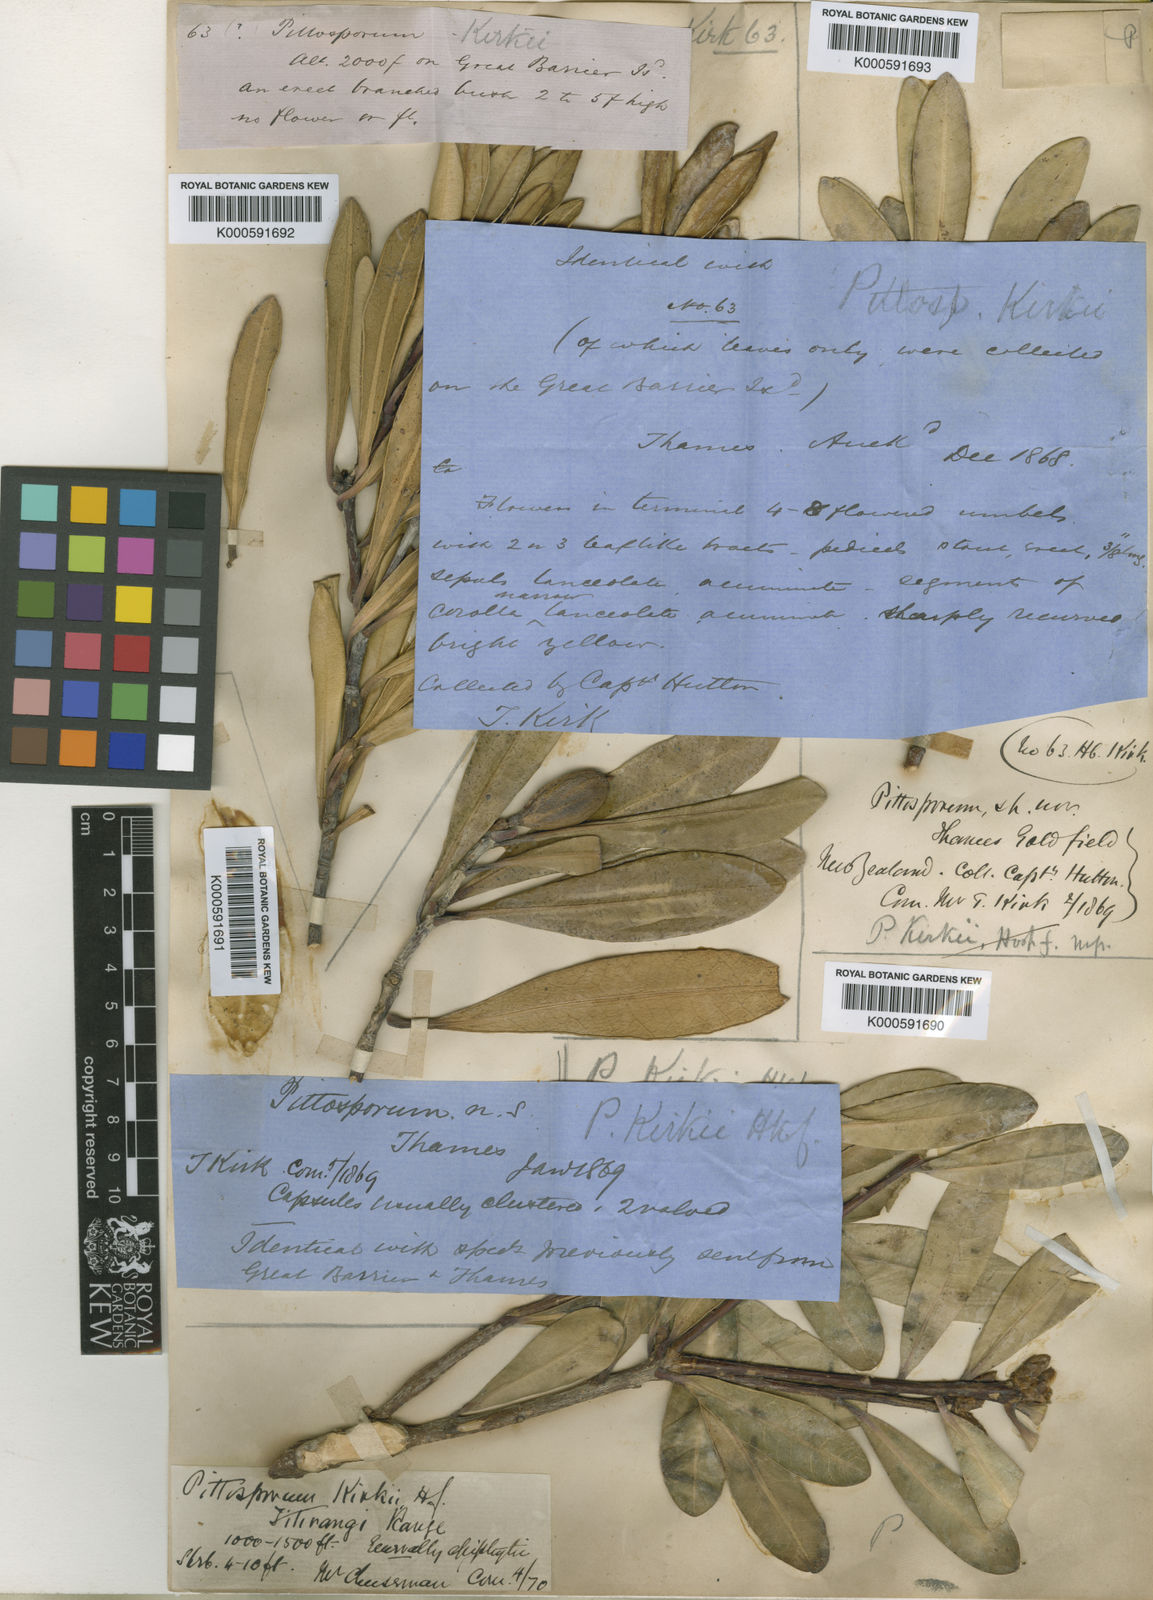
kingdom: Plantae
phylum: Tracheophyta
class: Magnoliopsida
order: Apiales
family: Pittosporaceae
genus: Pittosporum
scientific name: Pittosporum kirkii
